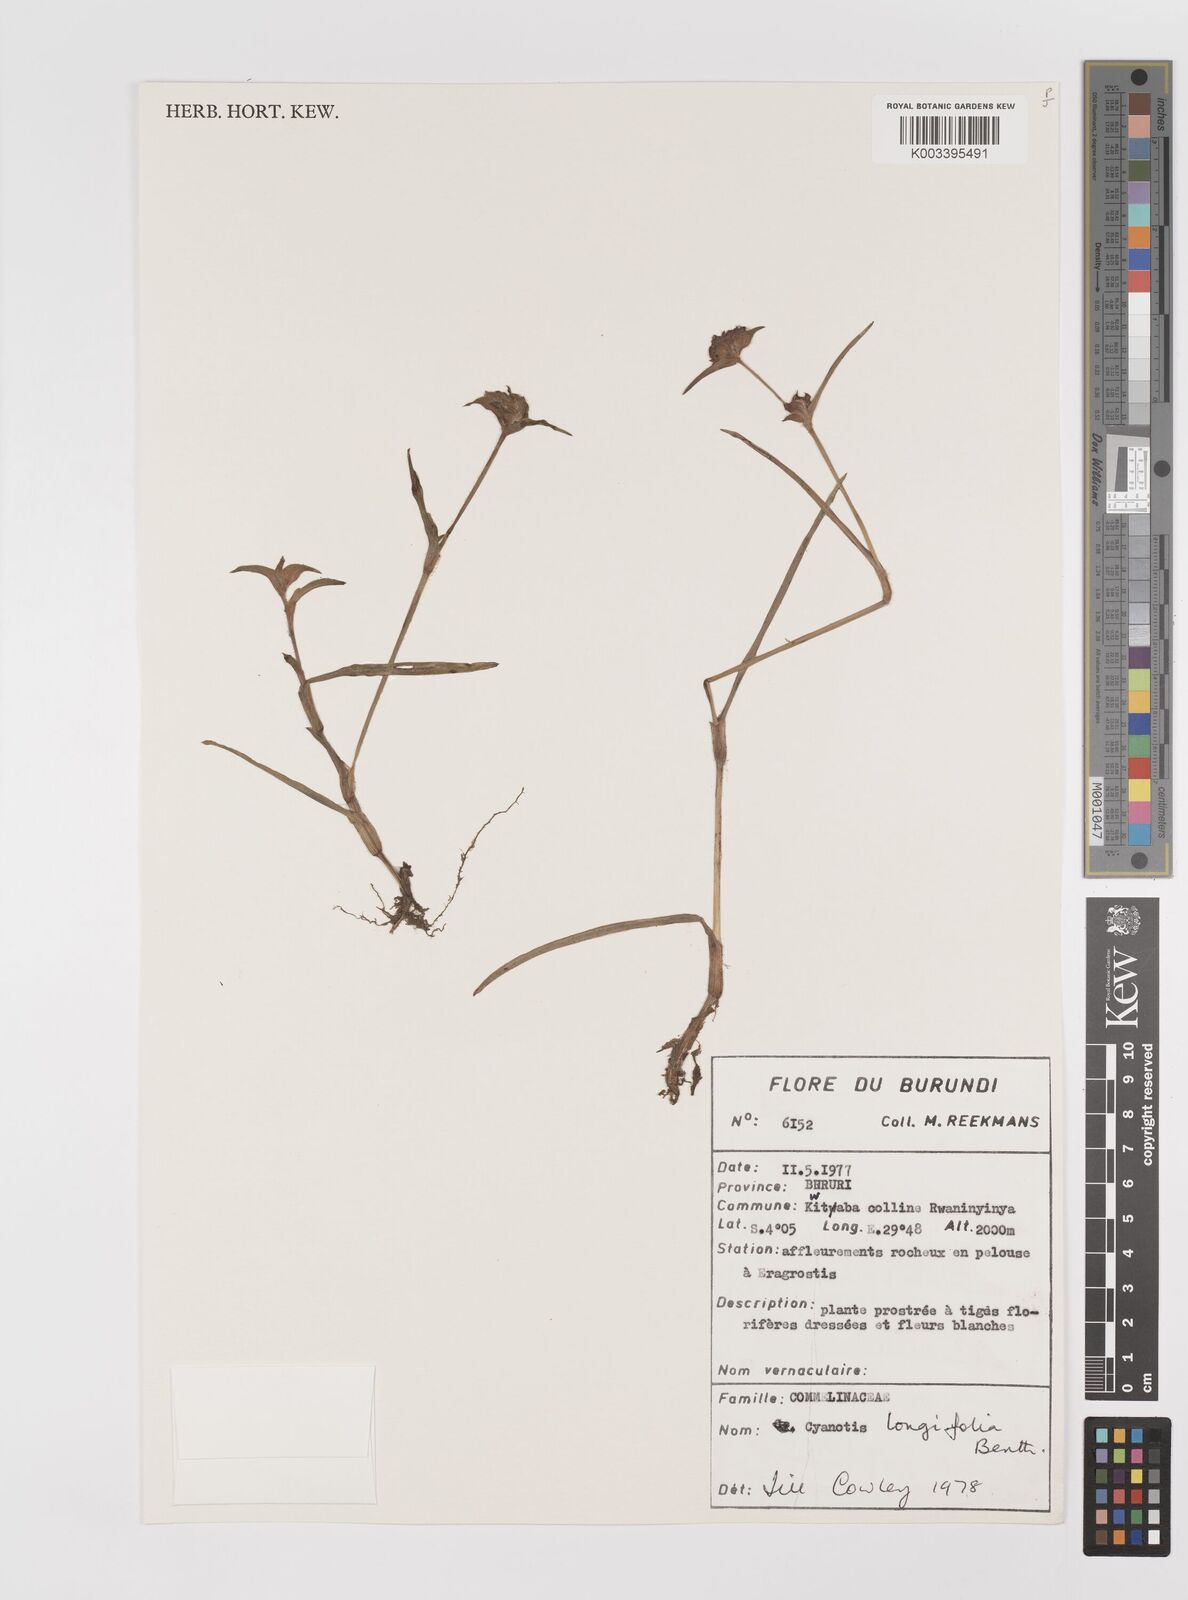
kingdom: Plantae
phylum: Tracheophyta
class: Liliopsida
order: Commelinales
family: Commelinaceae
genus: Cyanotis
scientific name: Cyanotis longifolia
